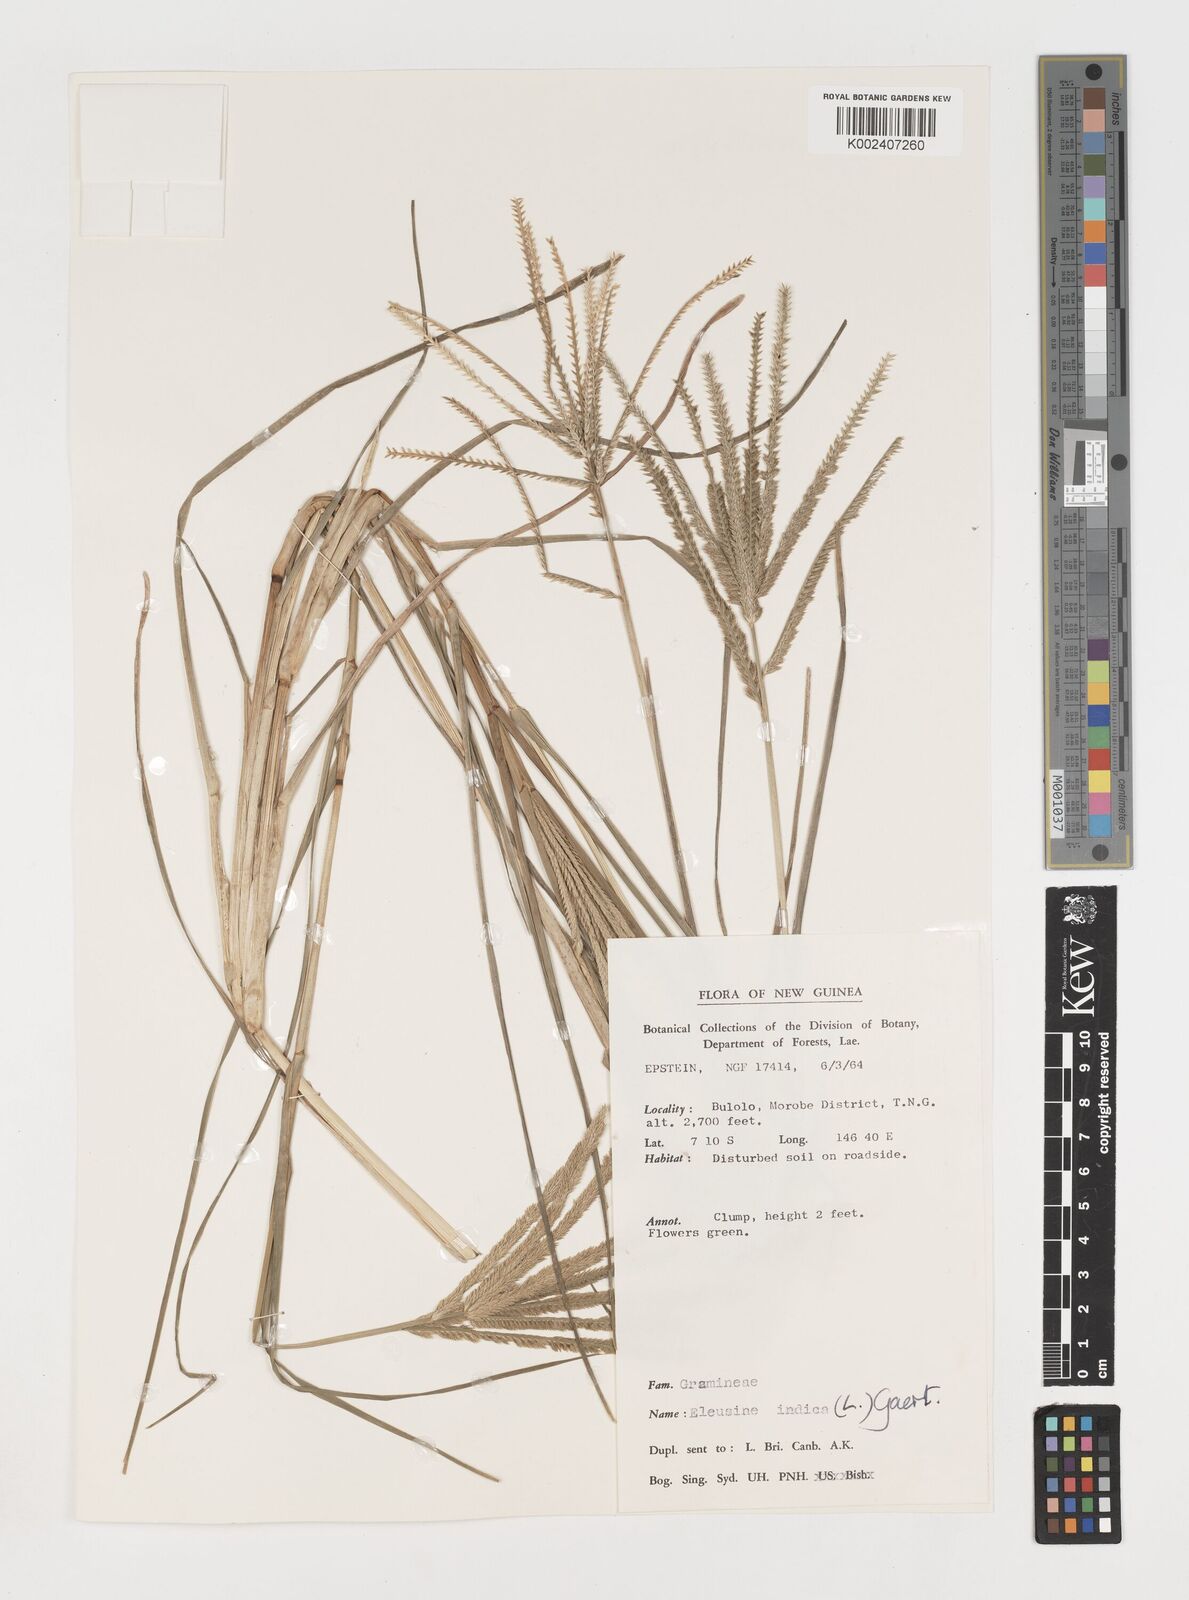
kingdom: Plantae
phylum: Tracheophyta
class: Liliopsida
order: Poales
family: Poaceae
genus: Eleusine
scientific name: Eleusine indica
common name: Yard-grass
